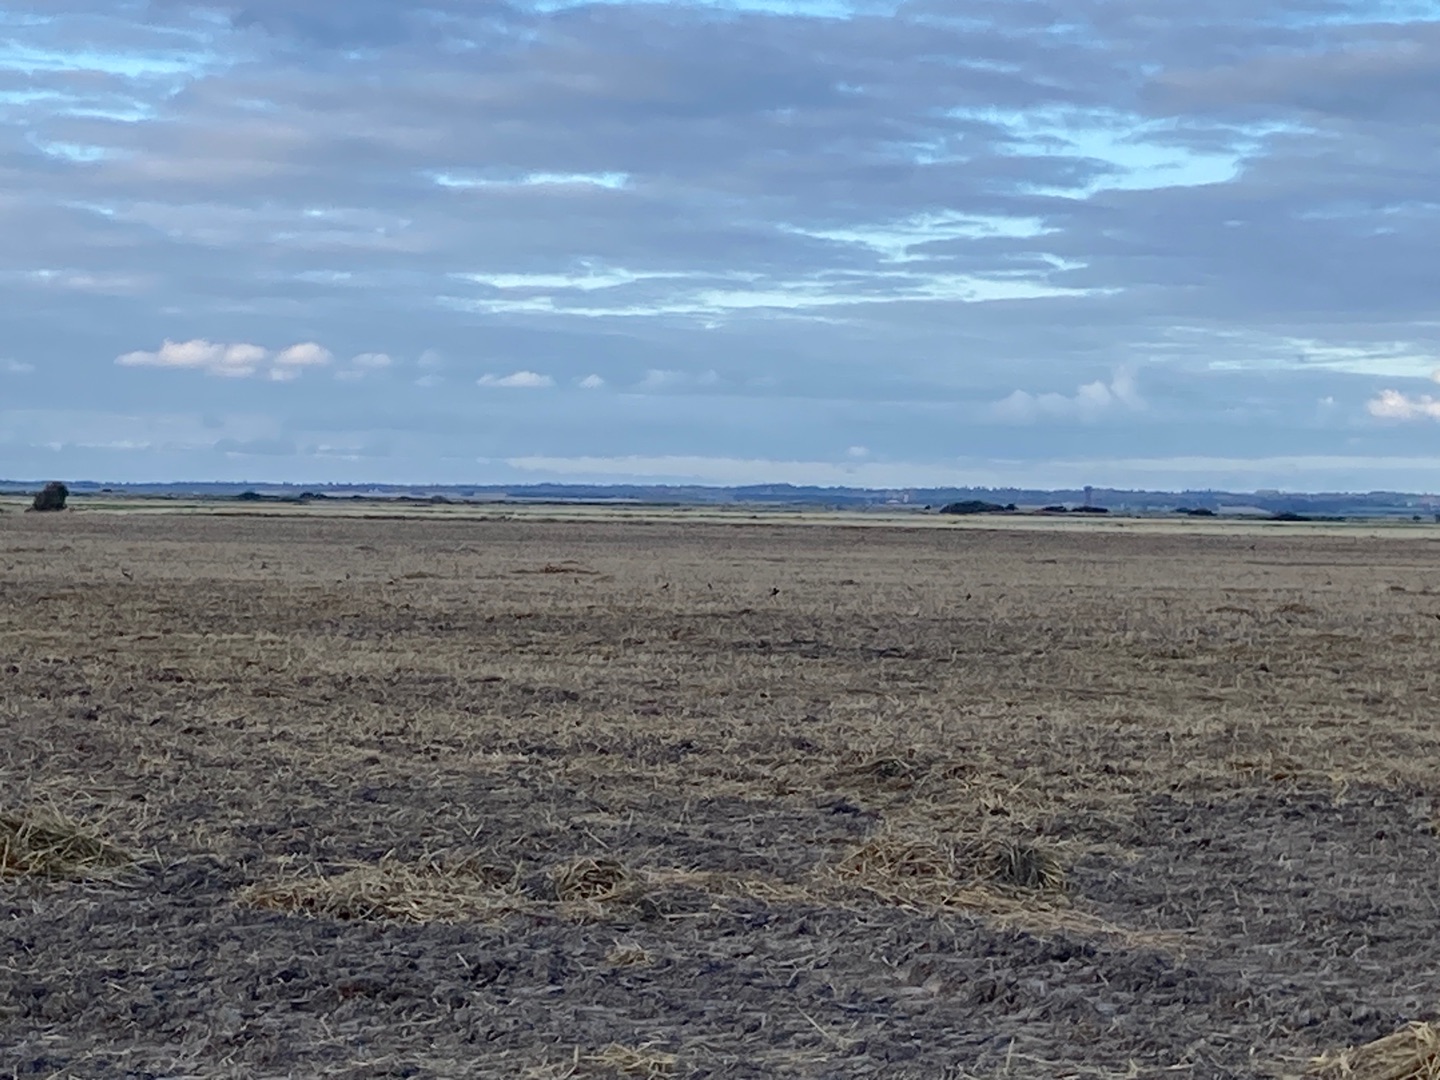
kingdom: Animalia
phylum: Chordata
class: Aves
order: Charadriiformes
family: Charadriidae
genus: Vanellus
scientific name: Vanellus vanellus
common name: Vibe
